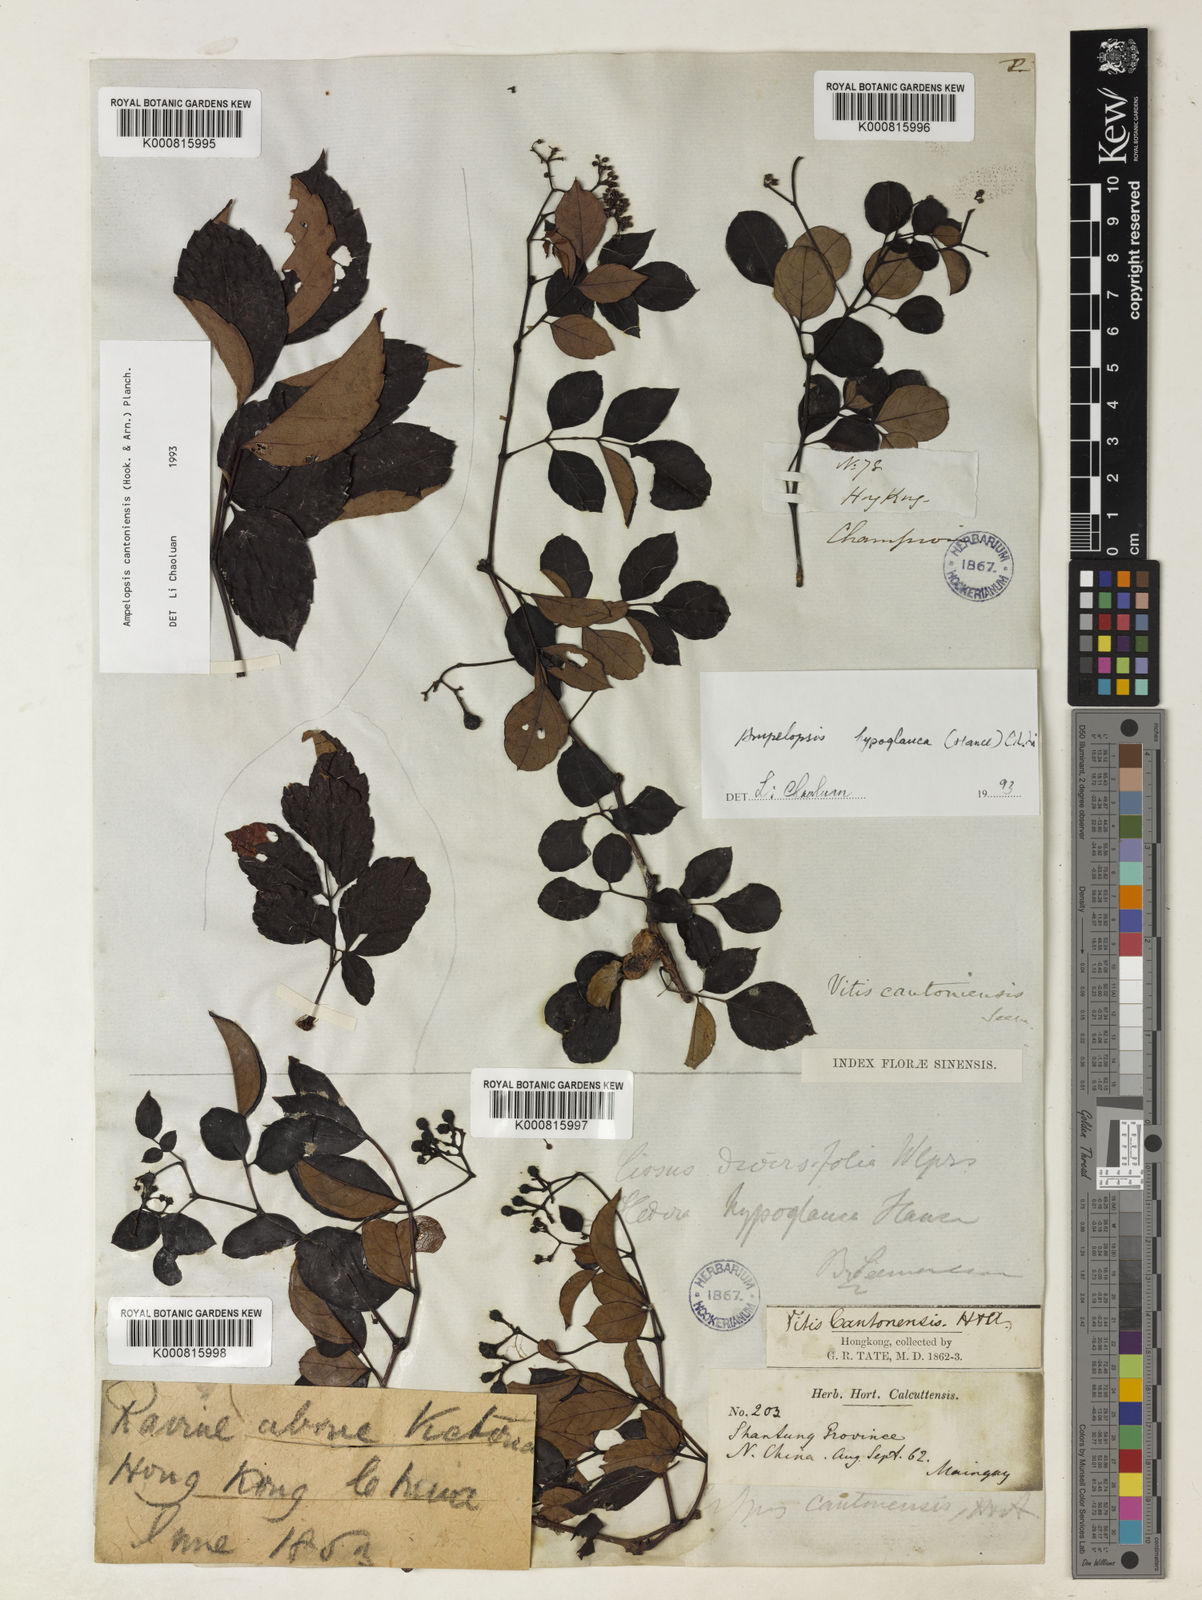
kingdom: Plantae
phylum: Tracheophyta
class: Magnoliopsida
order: Vitales
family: Vitaceae
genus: Ampelopsis
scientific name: Ampelopsis
